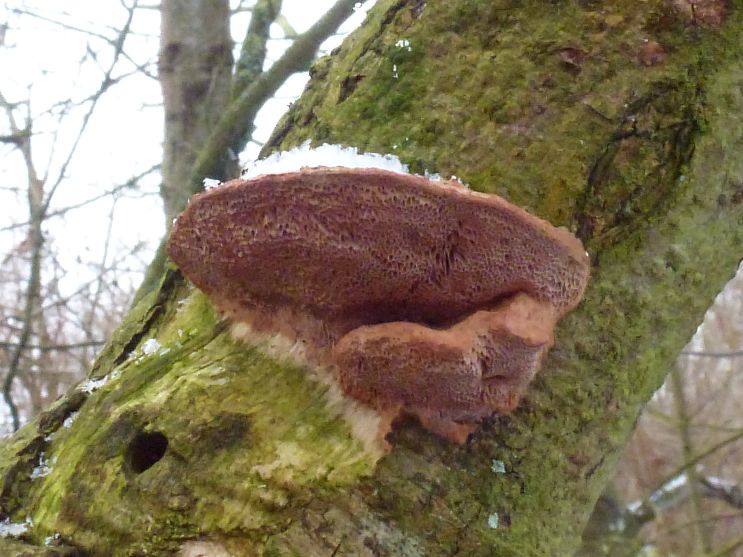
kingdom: Fungi
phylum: Basidiomycota
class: Agaricomycetes
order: Polyporales
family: Phanerochaetaceae
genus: Hapalopilus
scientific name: Hapalopilus rutilans
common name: rødlig okkerporesvamp
